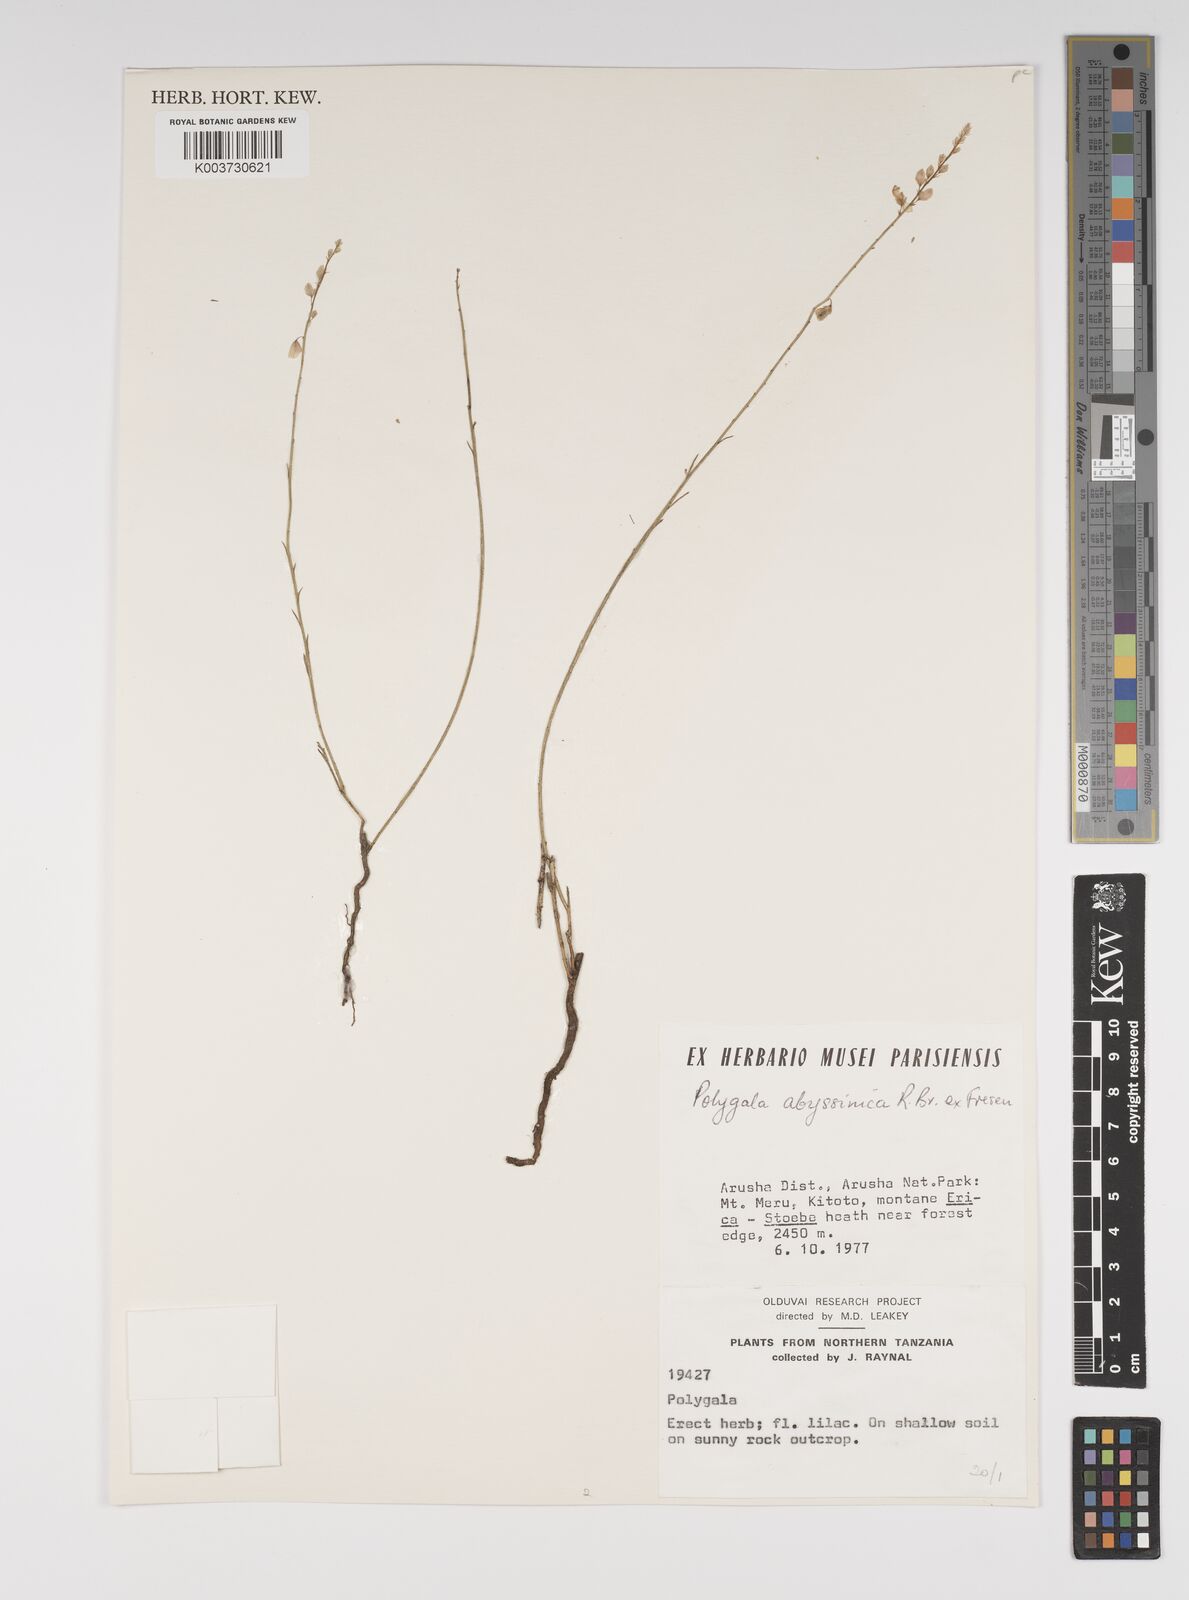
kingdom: Plantae
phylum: Tracheophyta
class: Magnoliopsida
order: Fabales
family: Polygalaceae
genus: Polygala
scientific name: Polygala abyssinica
